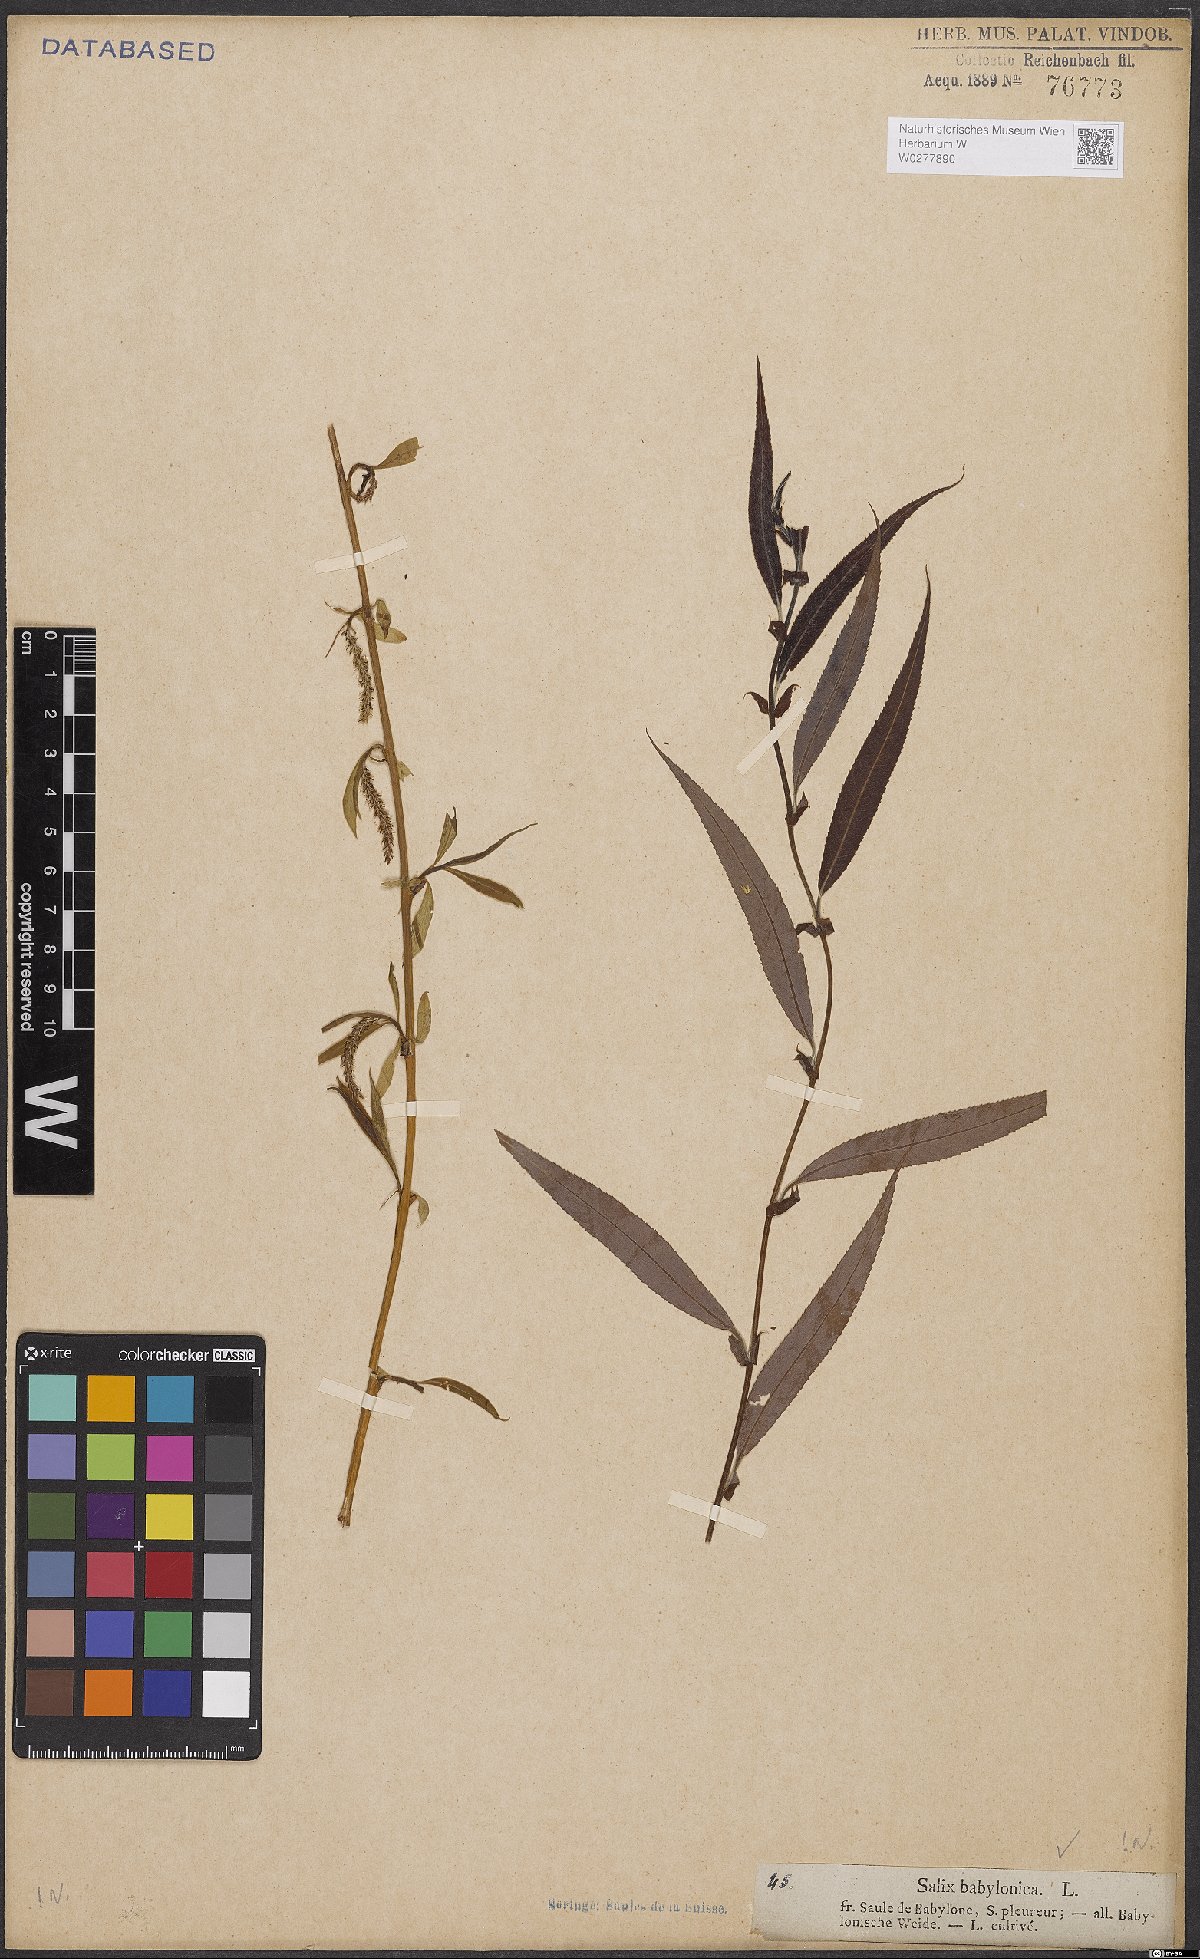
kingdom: Plantae
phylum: Tracheophyta
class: Magnoliopsida
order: Malpighiales
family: Salicaceae
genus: Salix
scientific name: Salix babylonica
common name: Weeping willow
